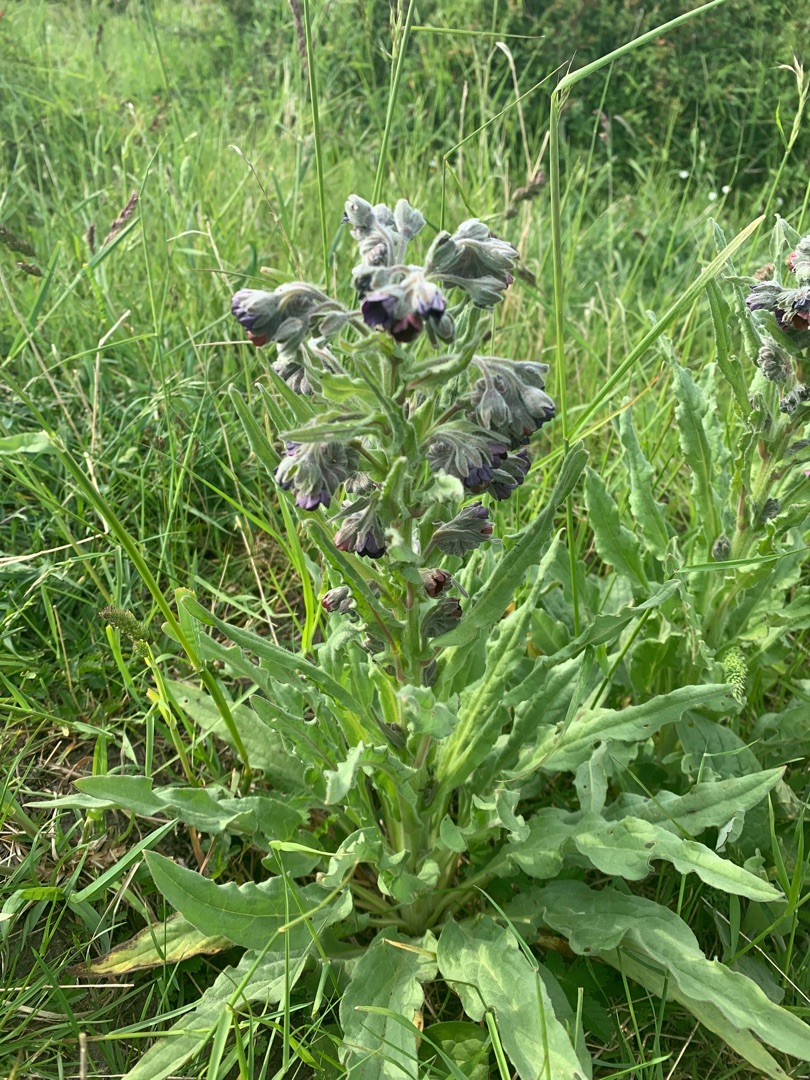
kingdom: Plantae
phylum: Tracheophyta
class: Magnoliopsida
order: Boraginales
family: Boraginaceae
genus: Cynoglossum
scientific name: Cynoglossum officinale
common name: Hundetunge
